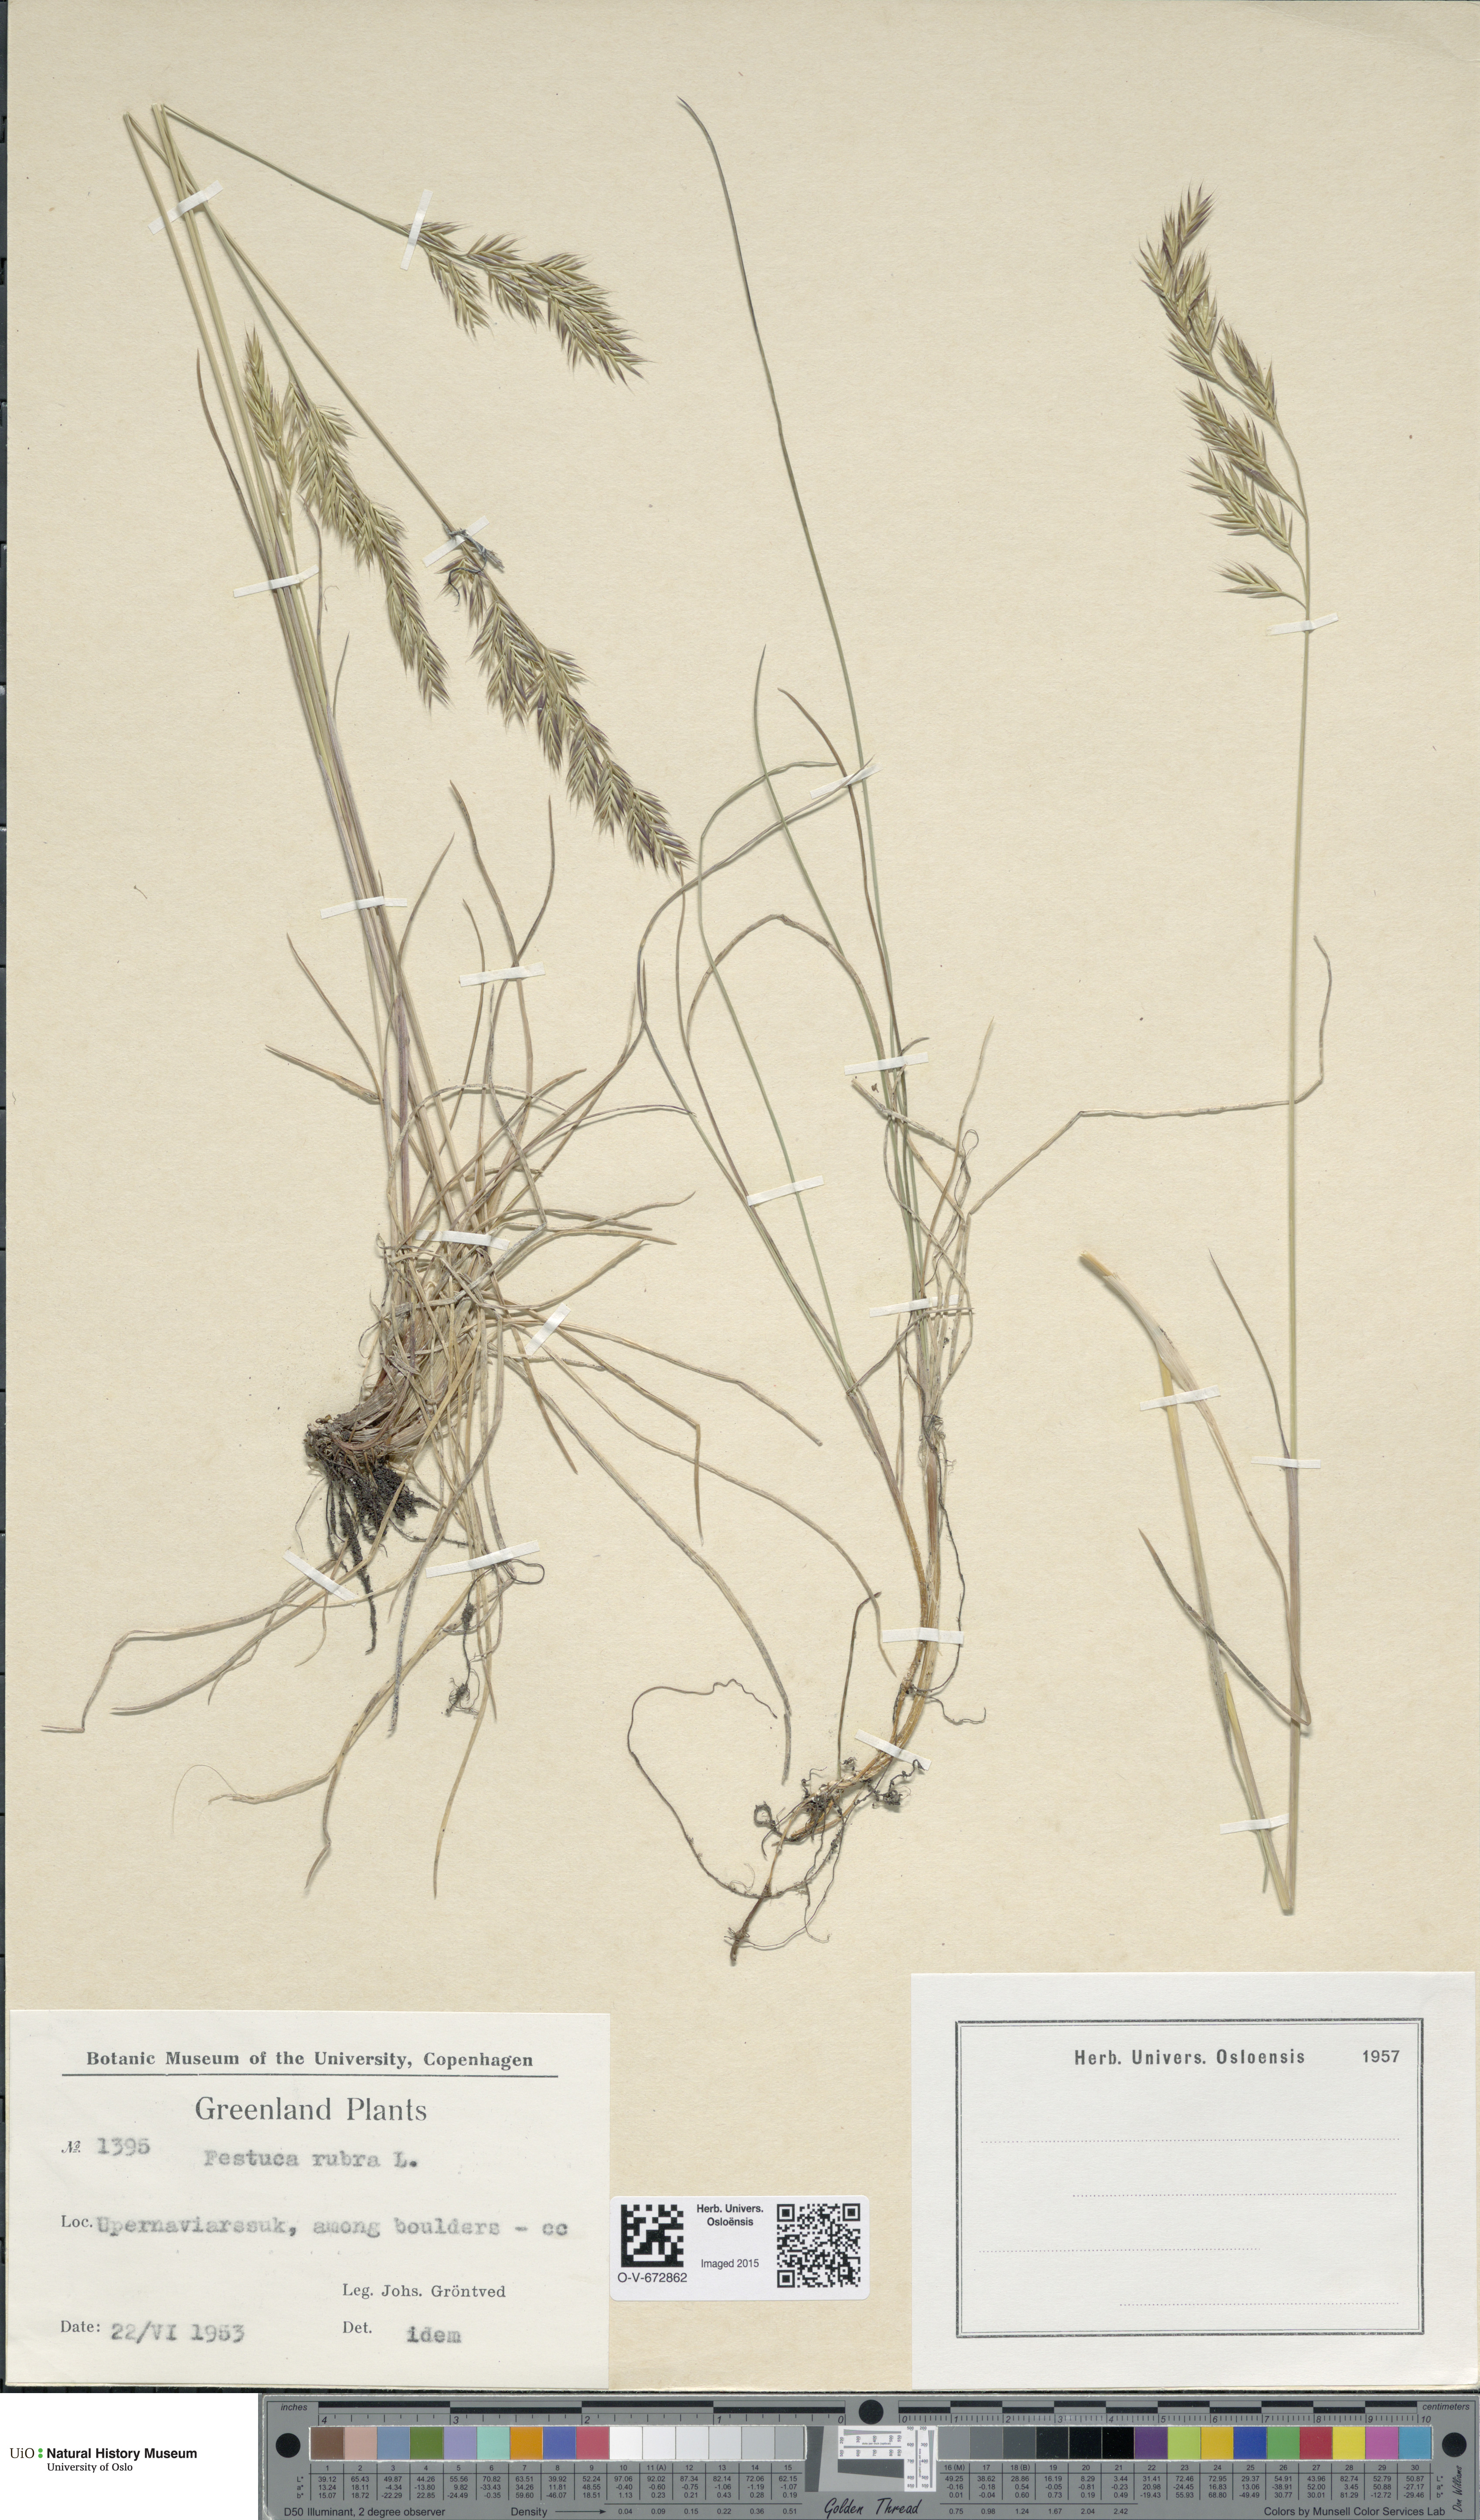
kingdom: Plantae
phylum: Tracheophyta
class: Liliopsida
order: Poales
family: Poaceae
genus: Festuca
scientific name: Festuca rubra
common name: Red fescue
